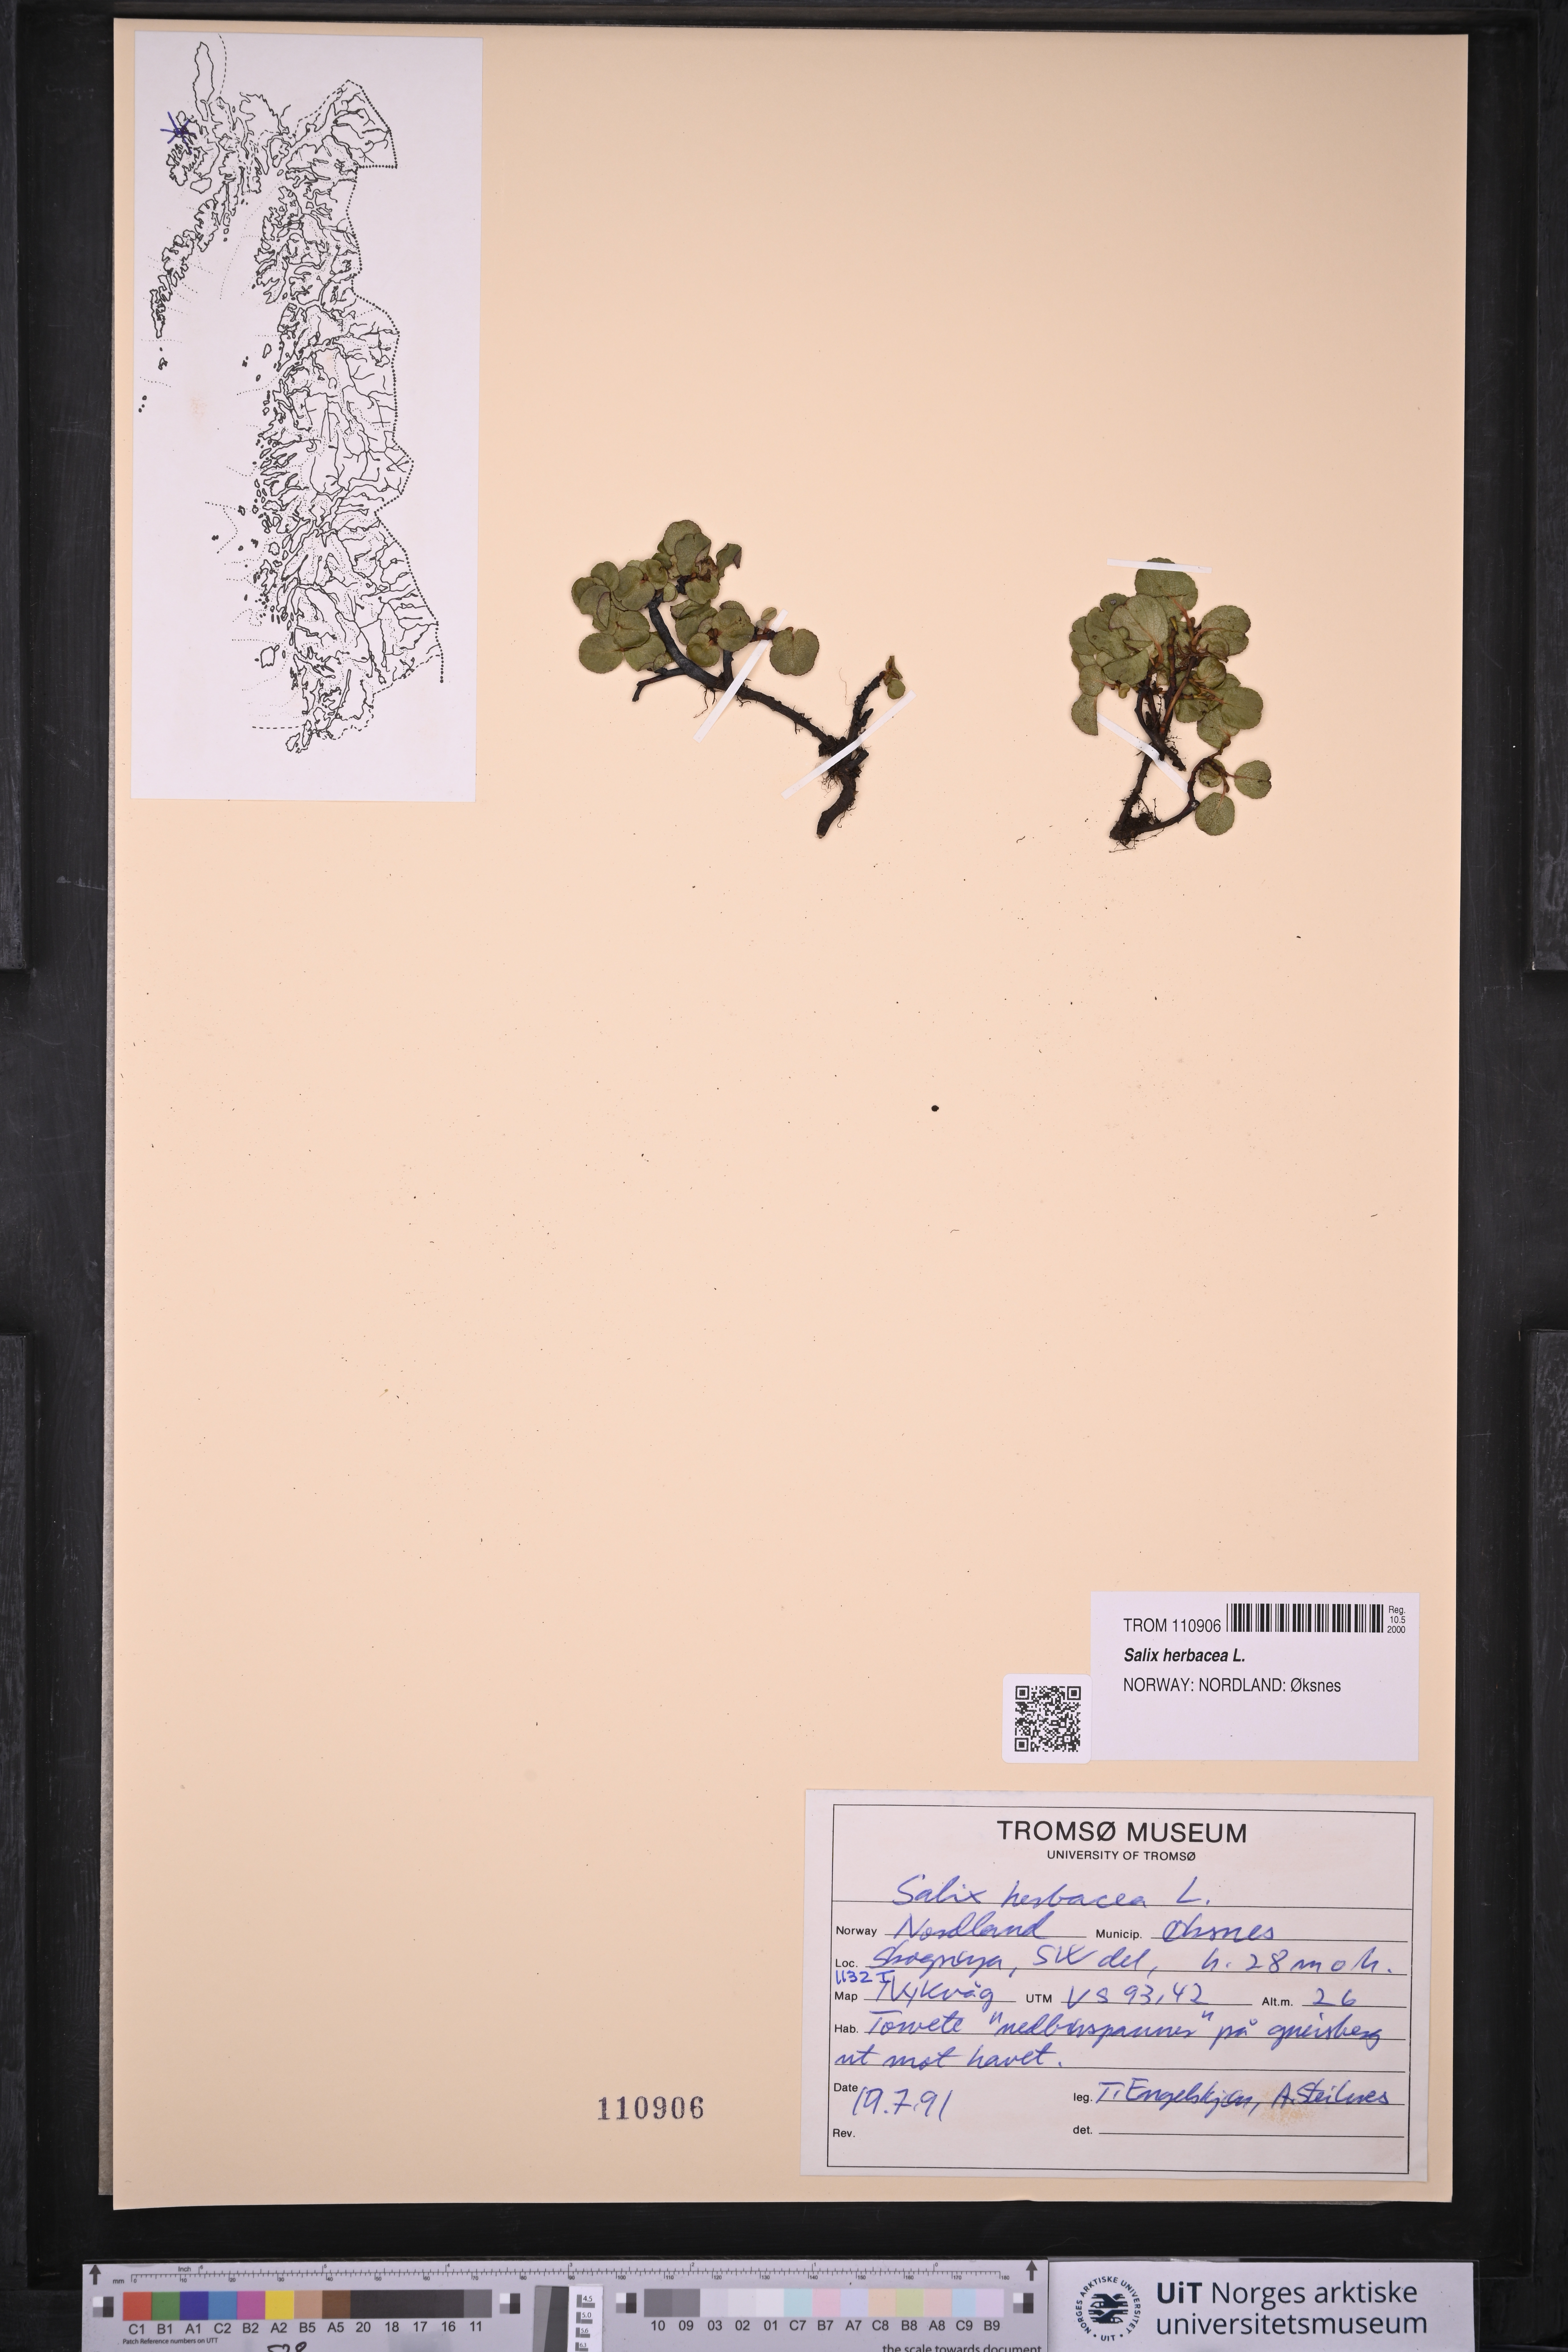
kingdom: Plantae
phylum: Tracheophyta
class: Magnoliopsida
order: Malpighiales
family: Salicaceae
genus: Salix
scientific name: Salix herbacea
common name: Dwarf willow
